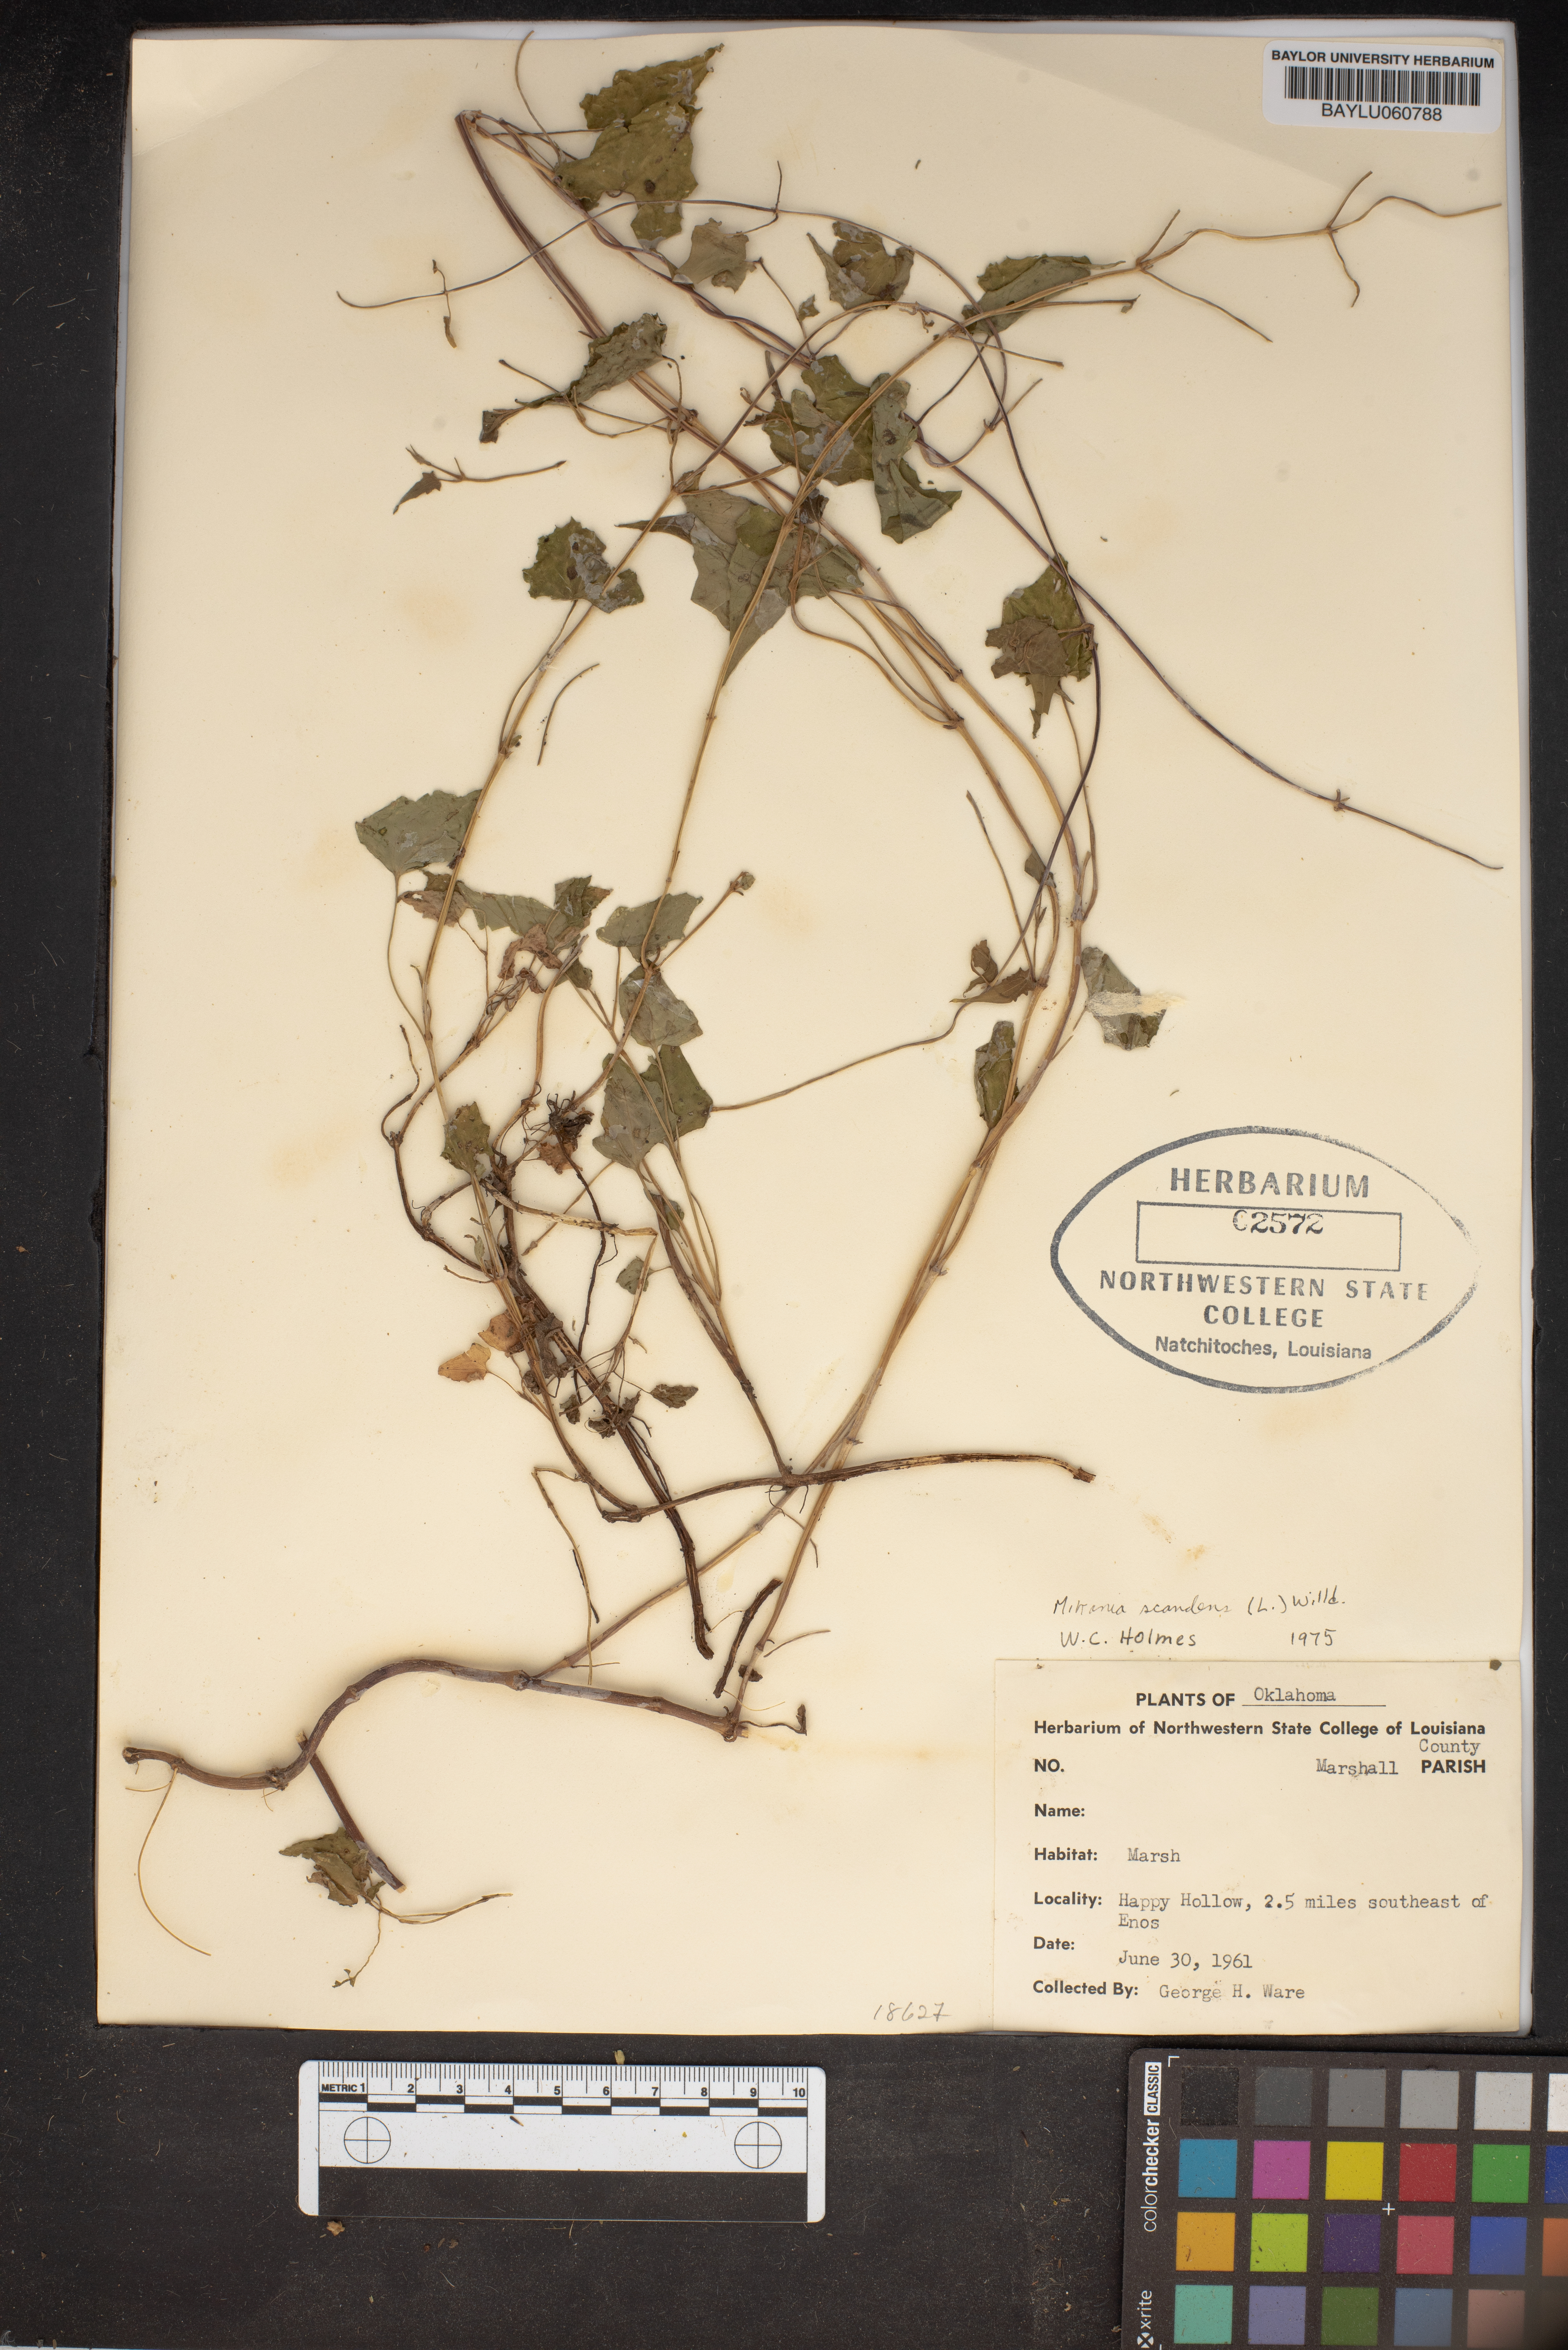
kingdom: Plantae
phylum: Tracheophyta
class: Magnoliopsida
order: Asterales
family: Asteraceae
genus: Mikania
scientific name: Mikania scandens
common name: Climbing hempvine
